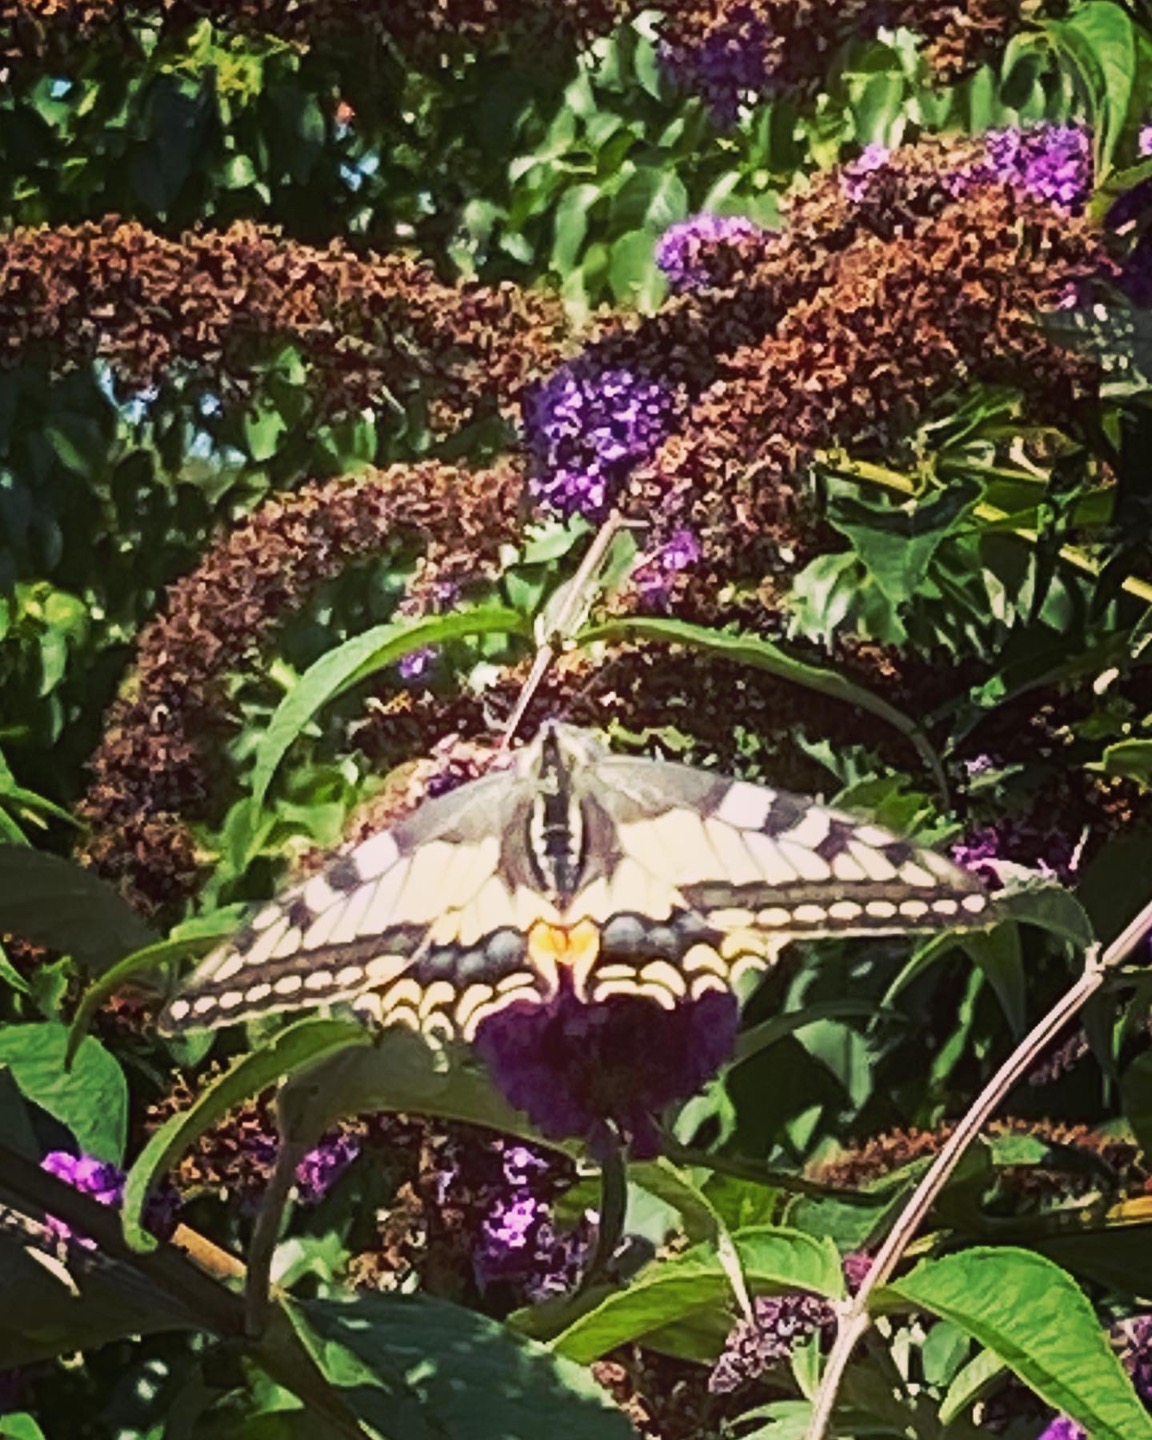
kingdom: Animalia
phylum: Arthropoda
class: Insecta
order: Lepidoptera
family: Papilionidae
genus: Papilio
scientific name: Papilio machaon
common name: Svalehale
